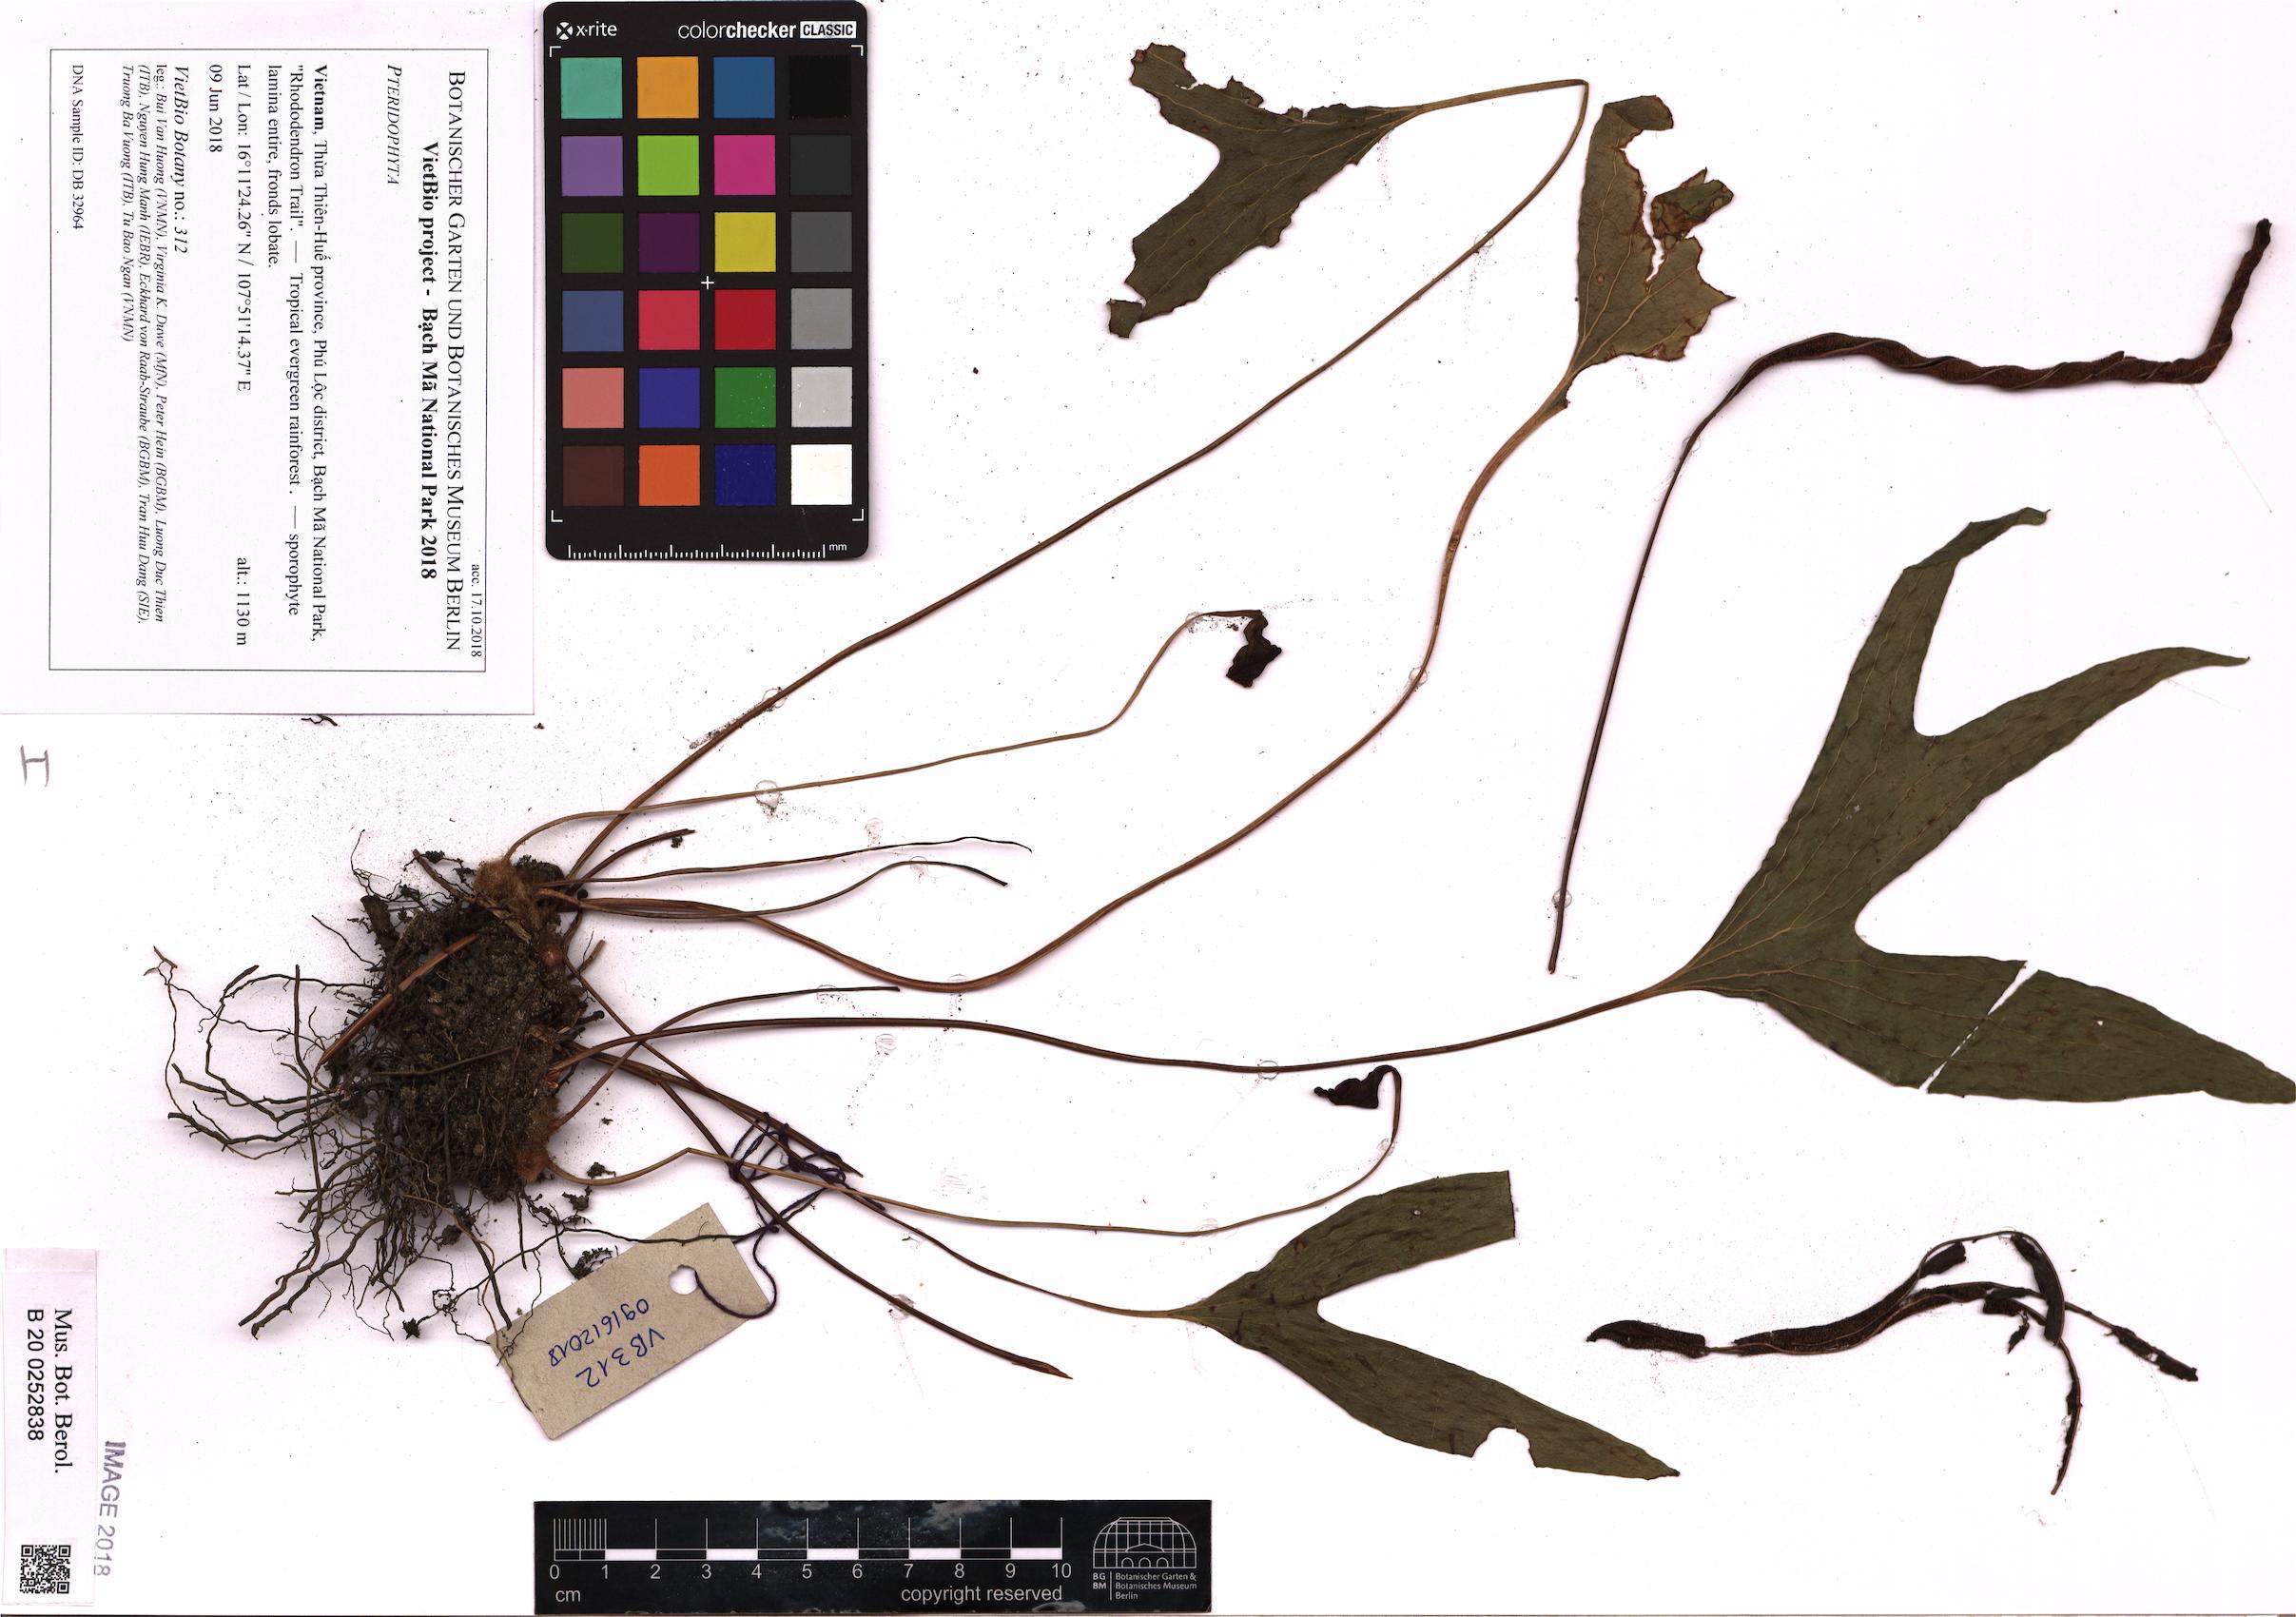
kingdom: Plantae
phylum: Tracheophyta
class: Polypodiopsida
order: Gleicheniales
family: Dipteridaceae
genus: Cheiropleuria
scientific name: Cheiropleuria bicuspis
